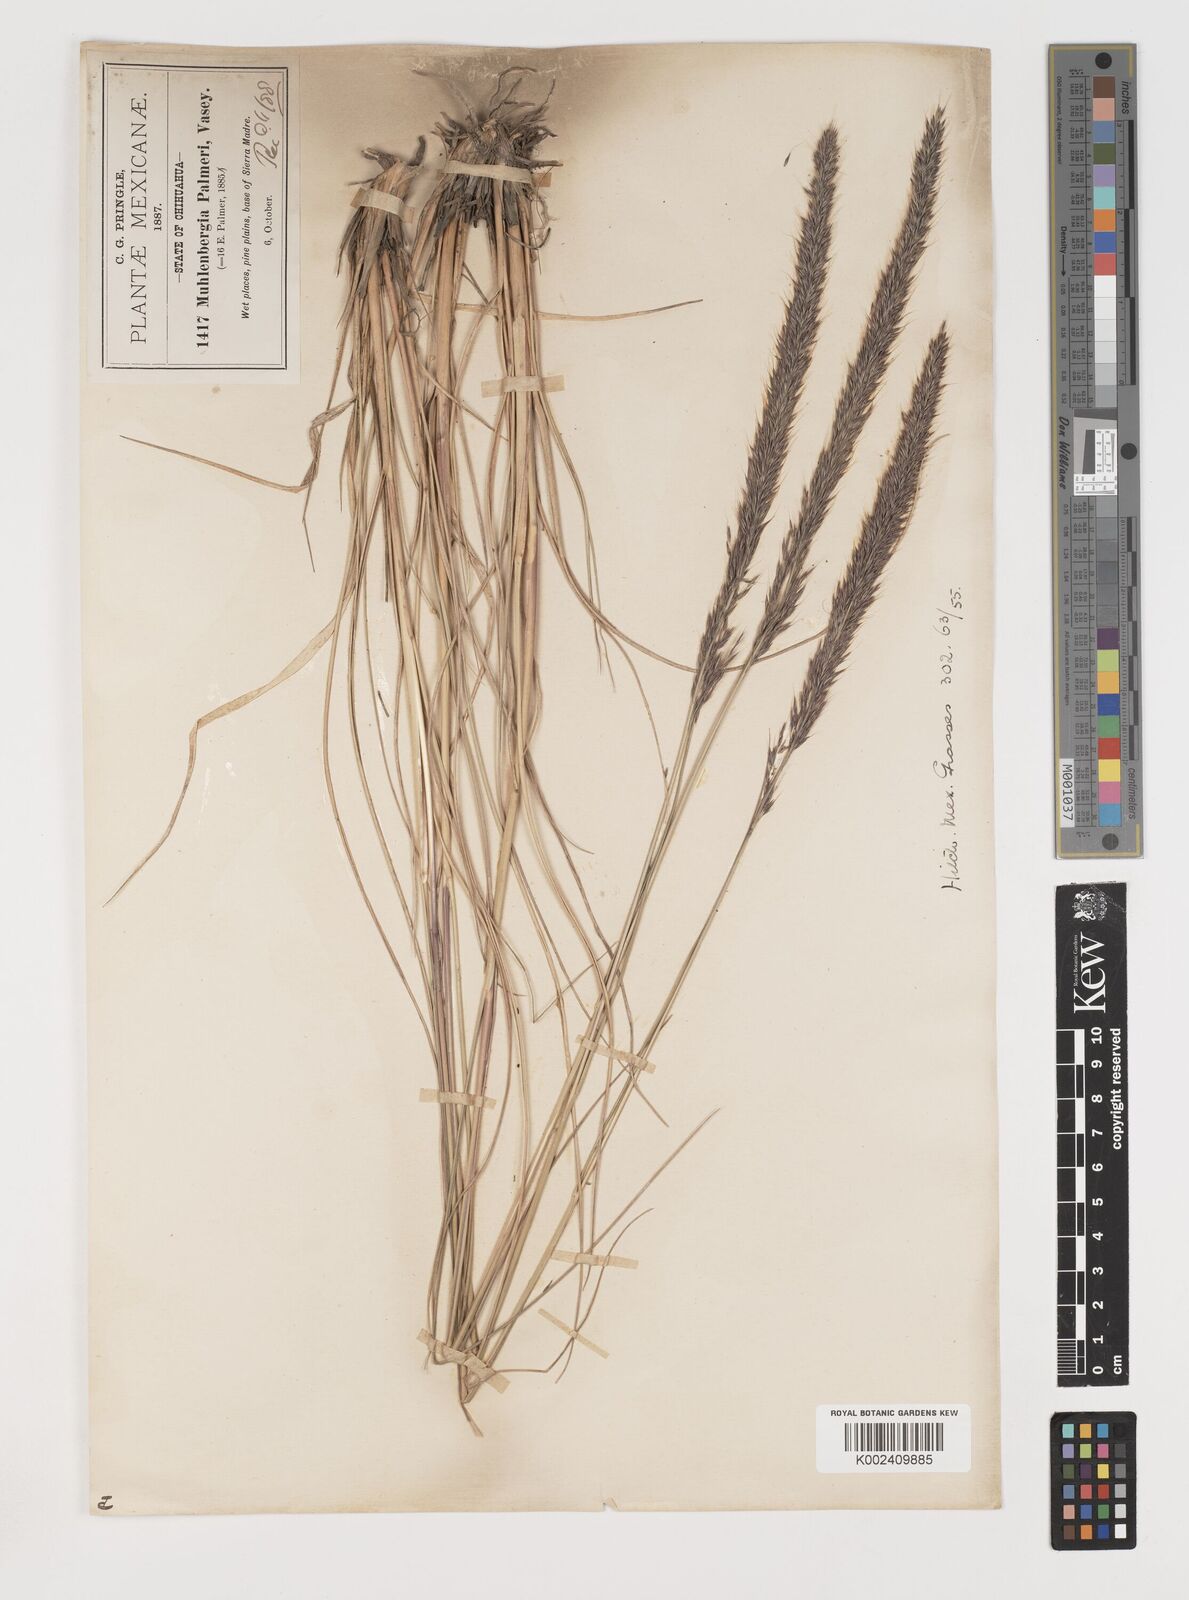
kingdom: Plantae
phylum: Tracheophyta
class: Liliopsida
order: Poales
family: Poaceae
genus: Muhlenbergia
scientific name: Muhlenbergia palmeri
